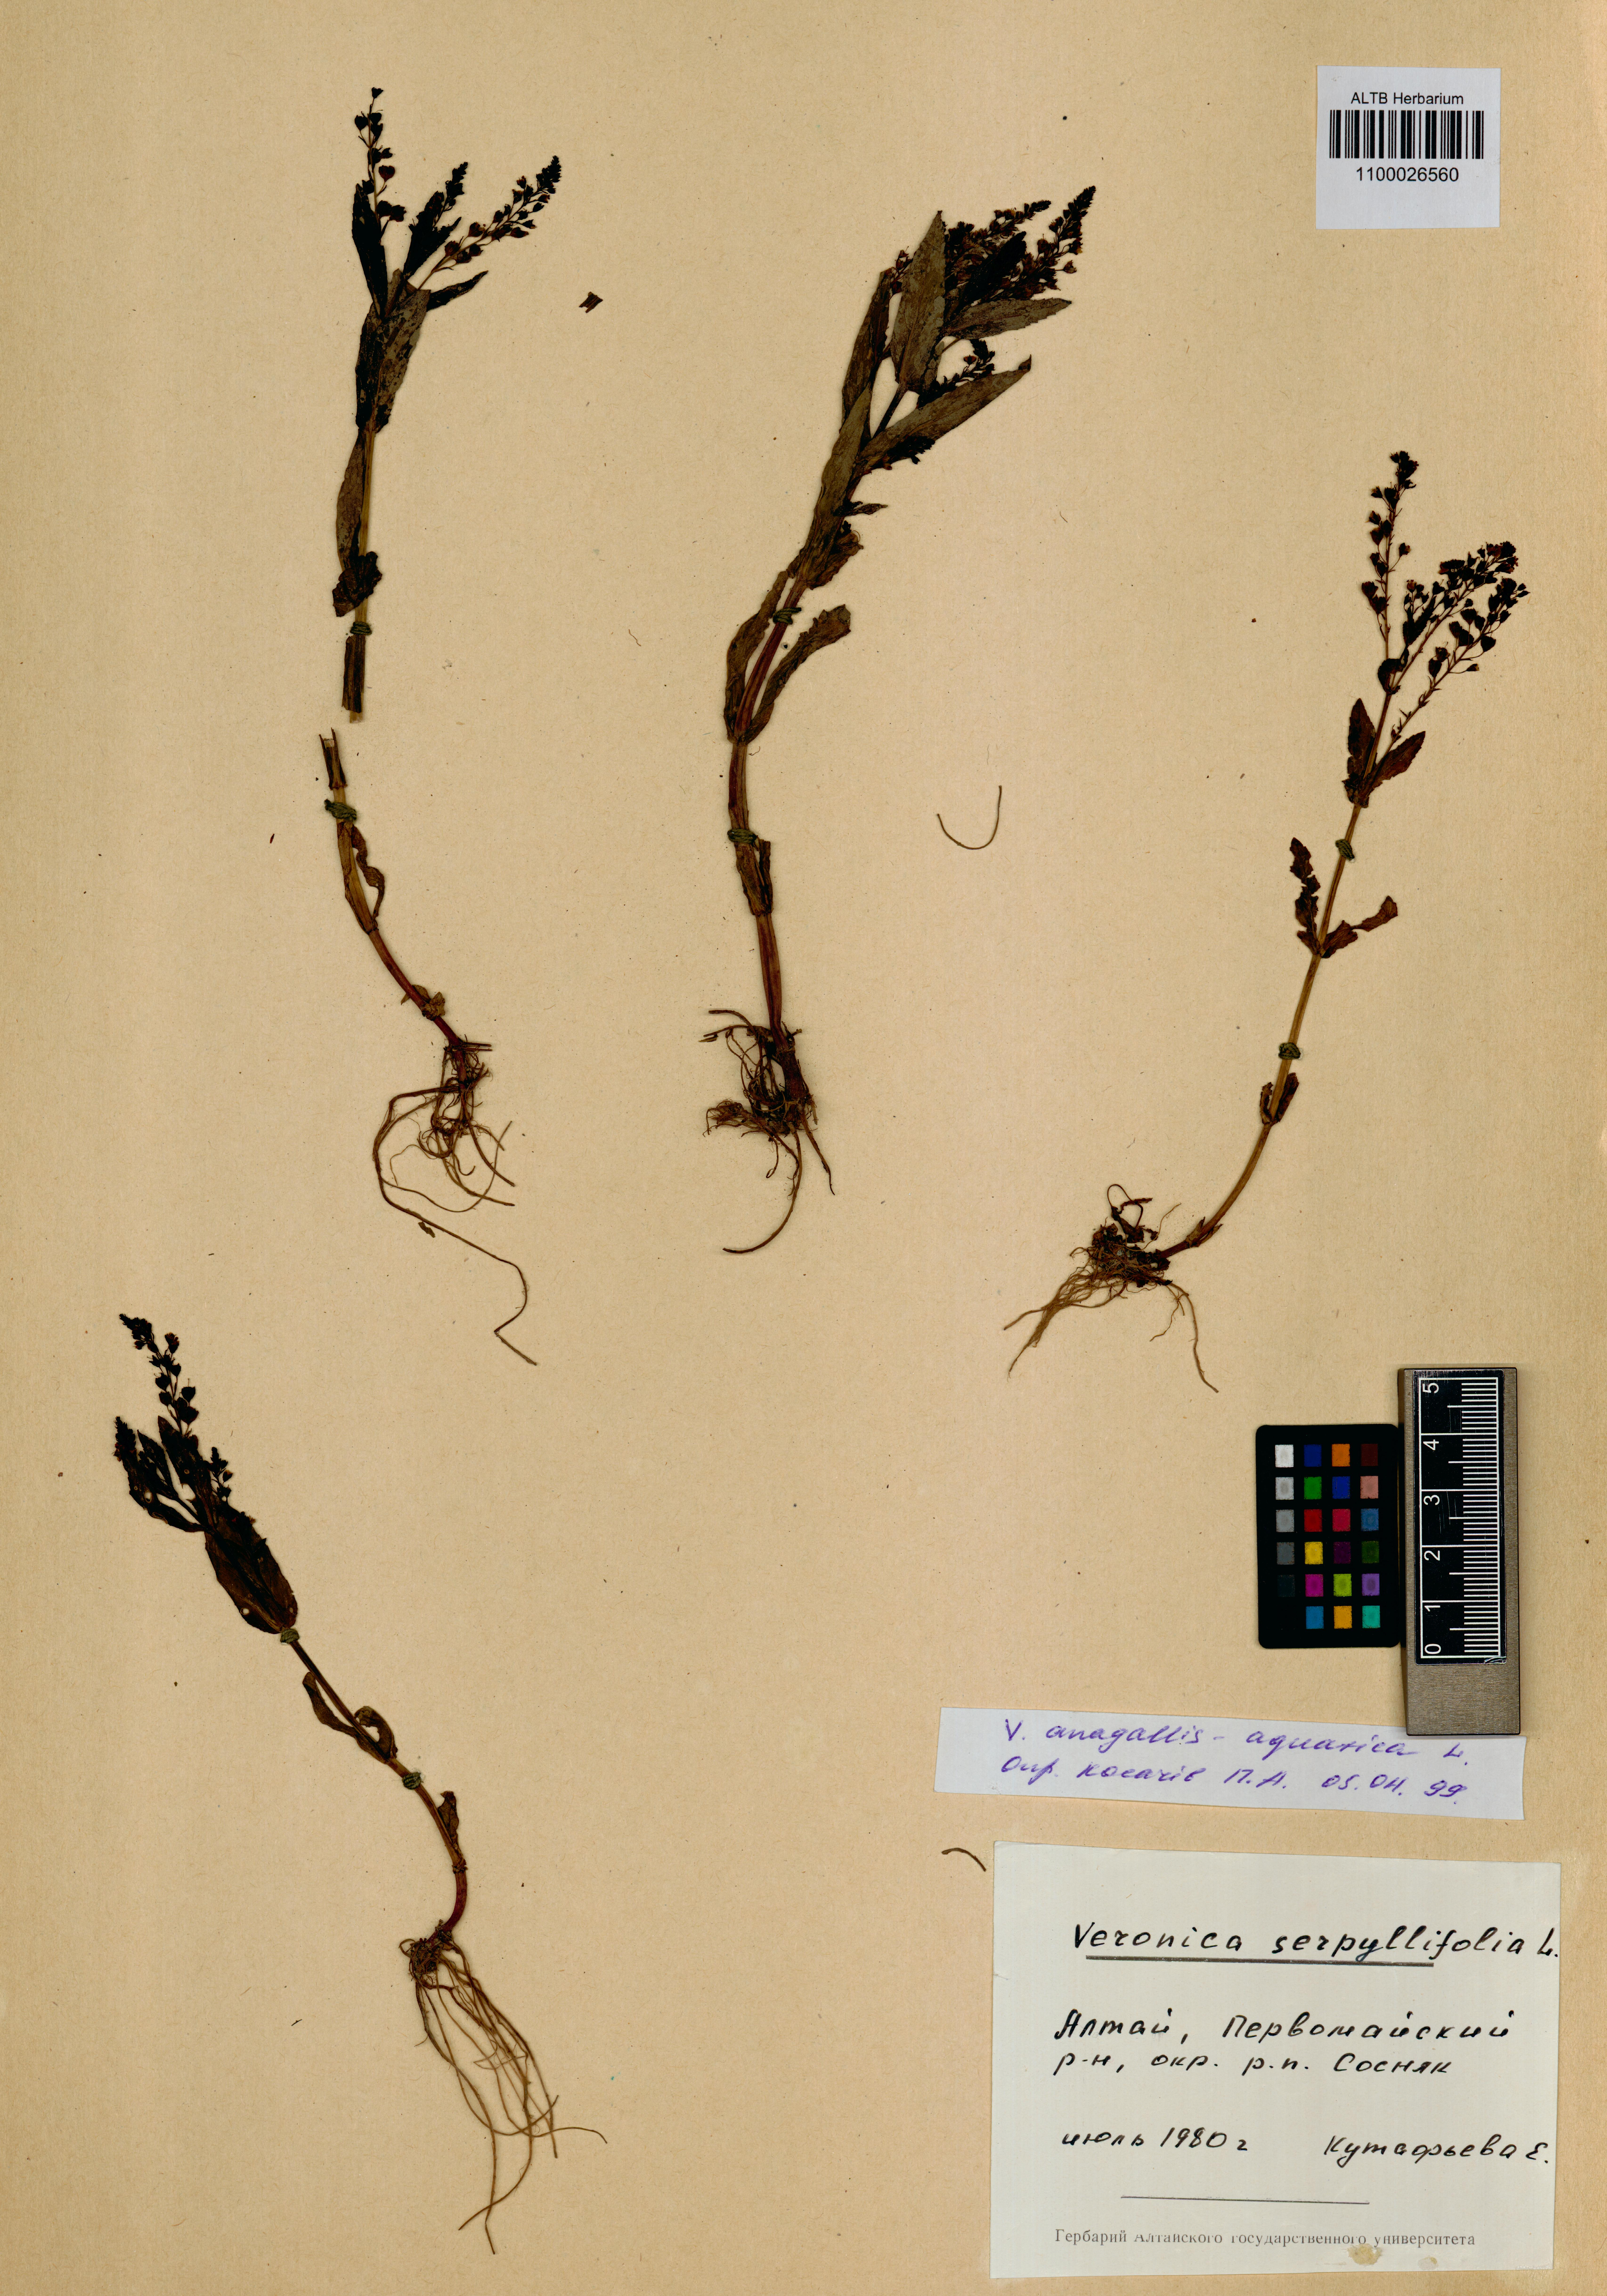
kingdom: Plantae
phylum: Tracheophyta
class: Magnoliopsida
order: Lamiales
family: Plantaginaceae
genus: Veronica
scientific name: Veronica anagallis-aquatica
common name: Water speedwell
